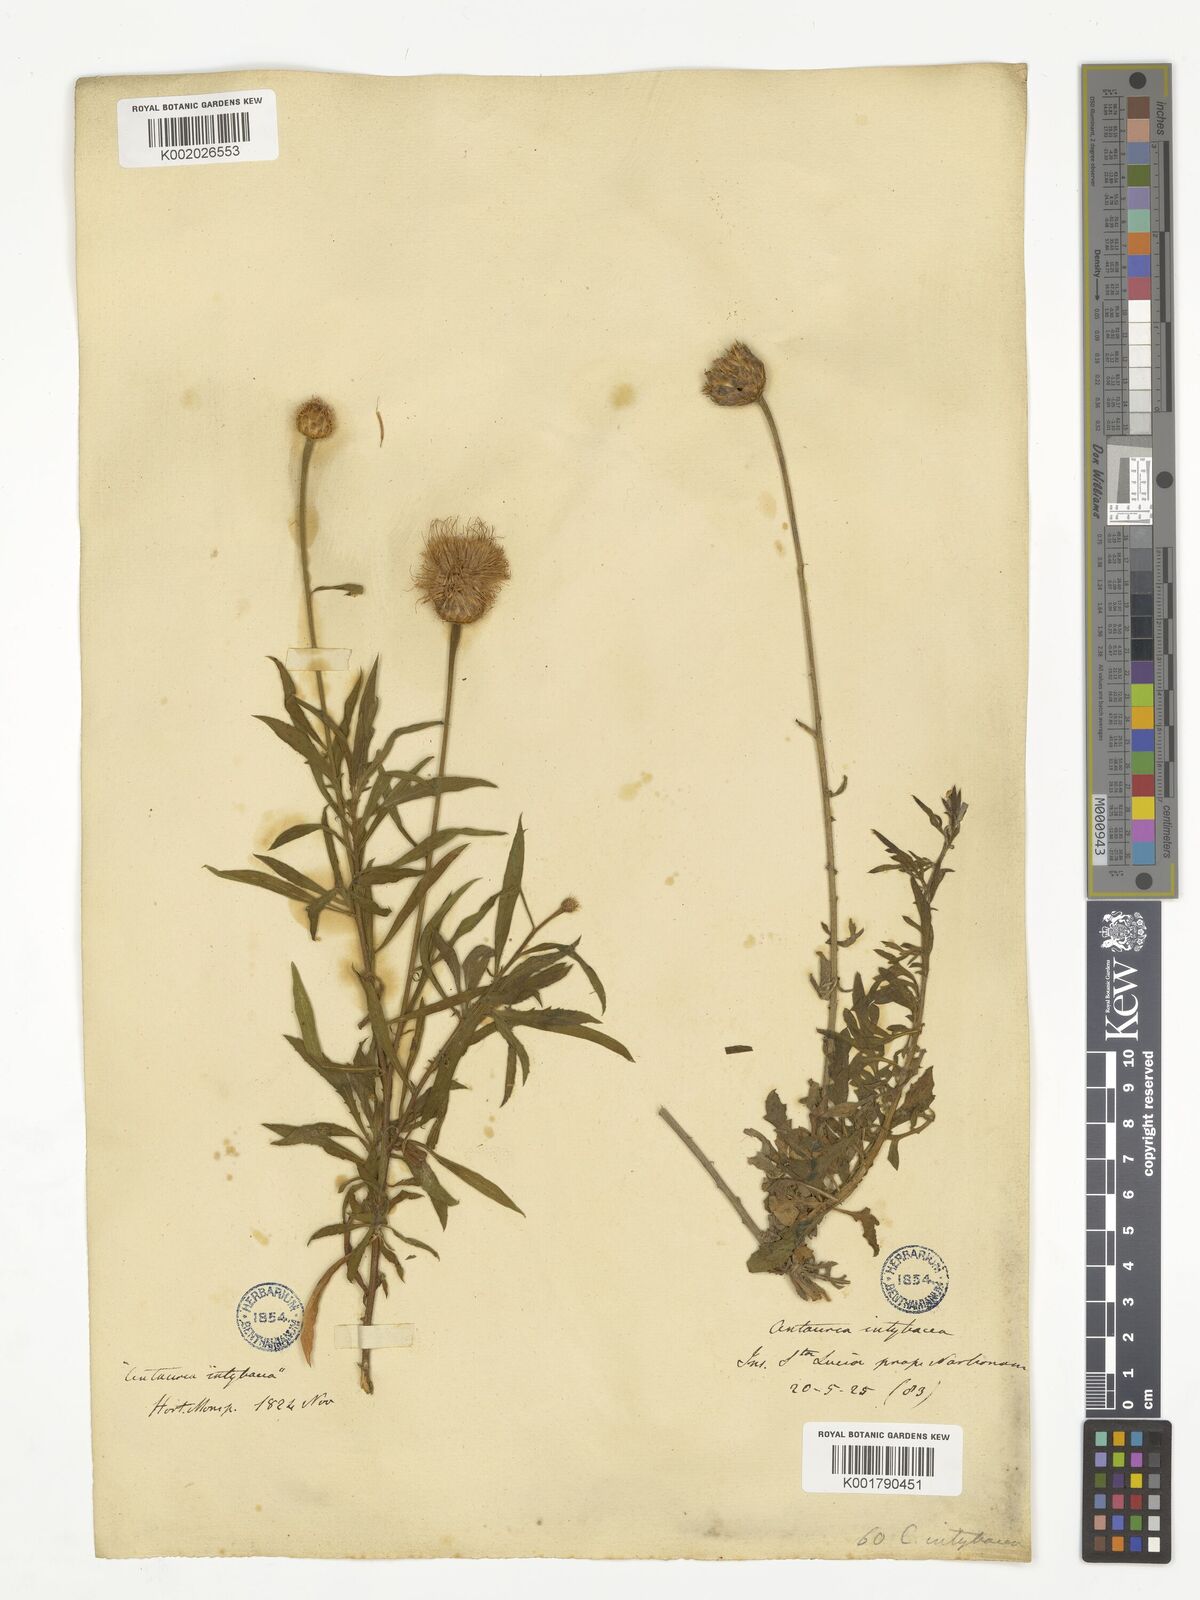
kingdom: Plantae
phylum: Tracheophyta
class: Magnoliopsida
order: Asterales
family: Asteraceae
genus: Cheirolophus
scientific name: Cheirolophus intybaceus
